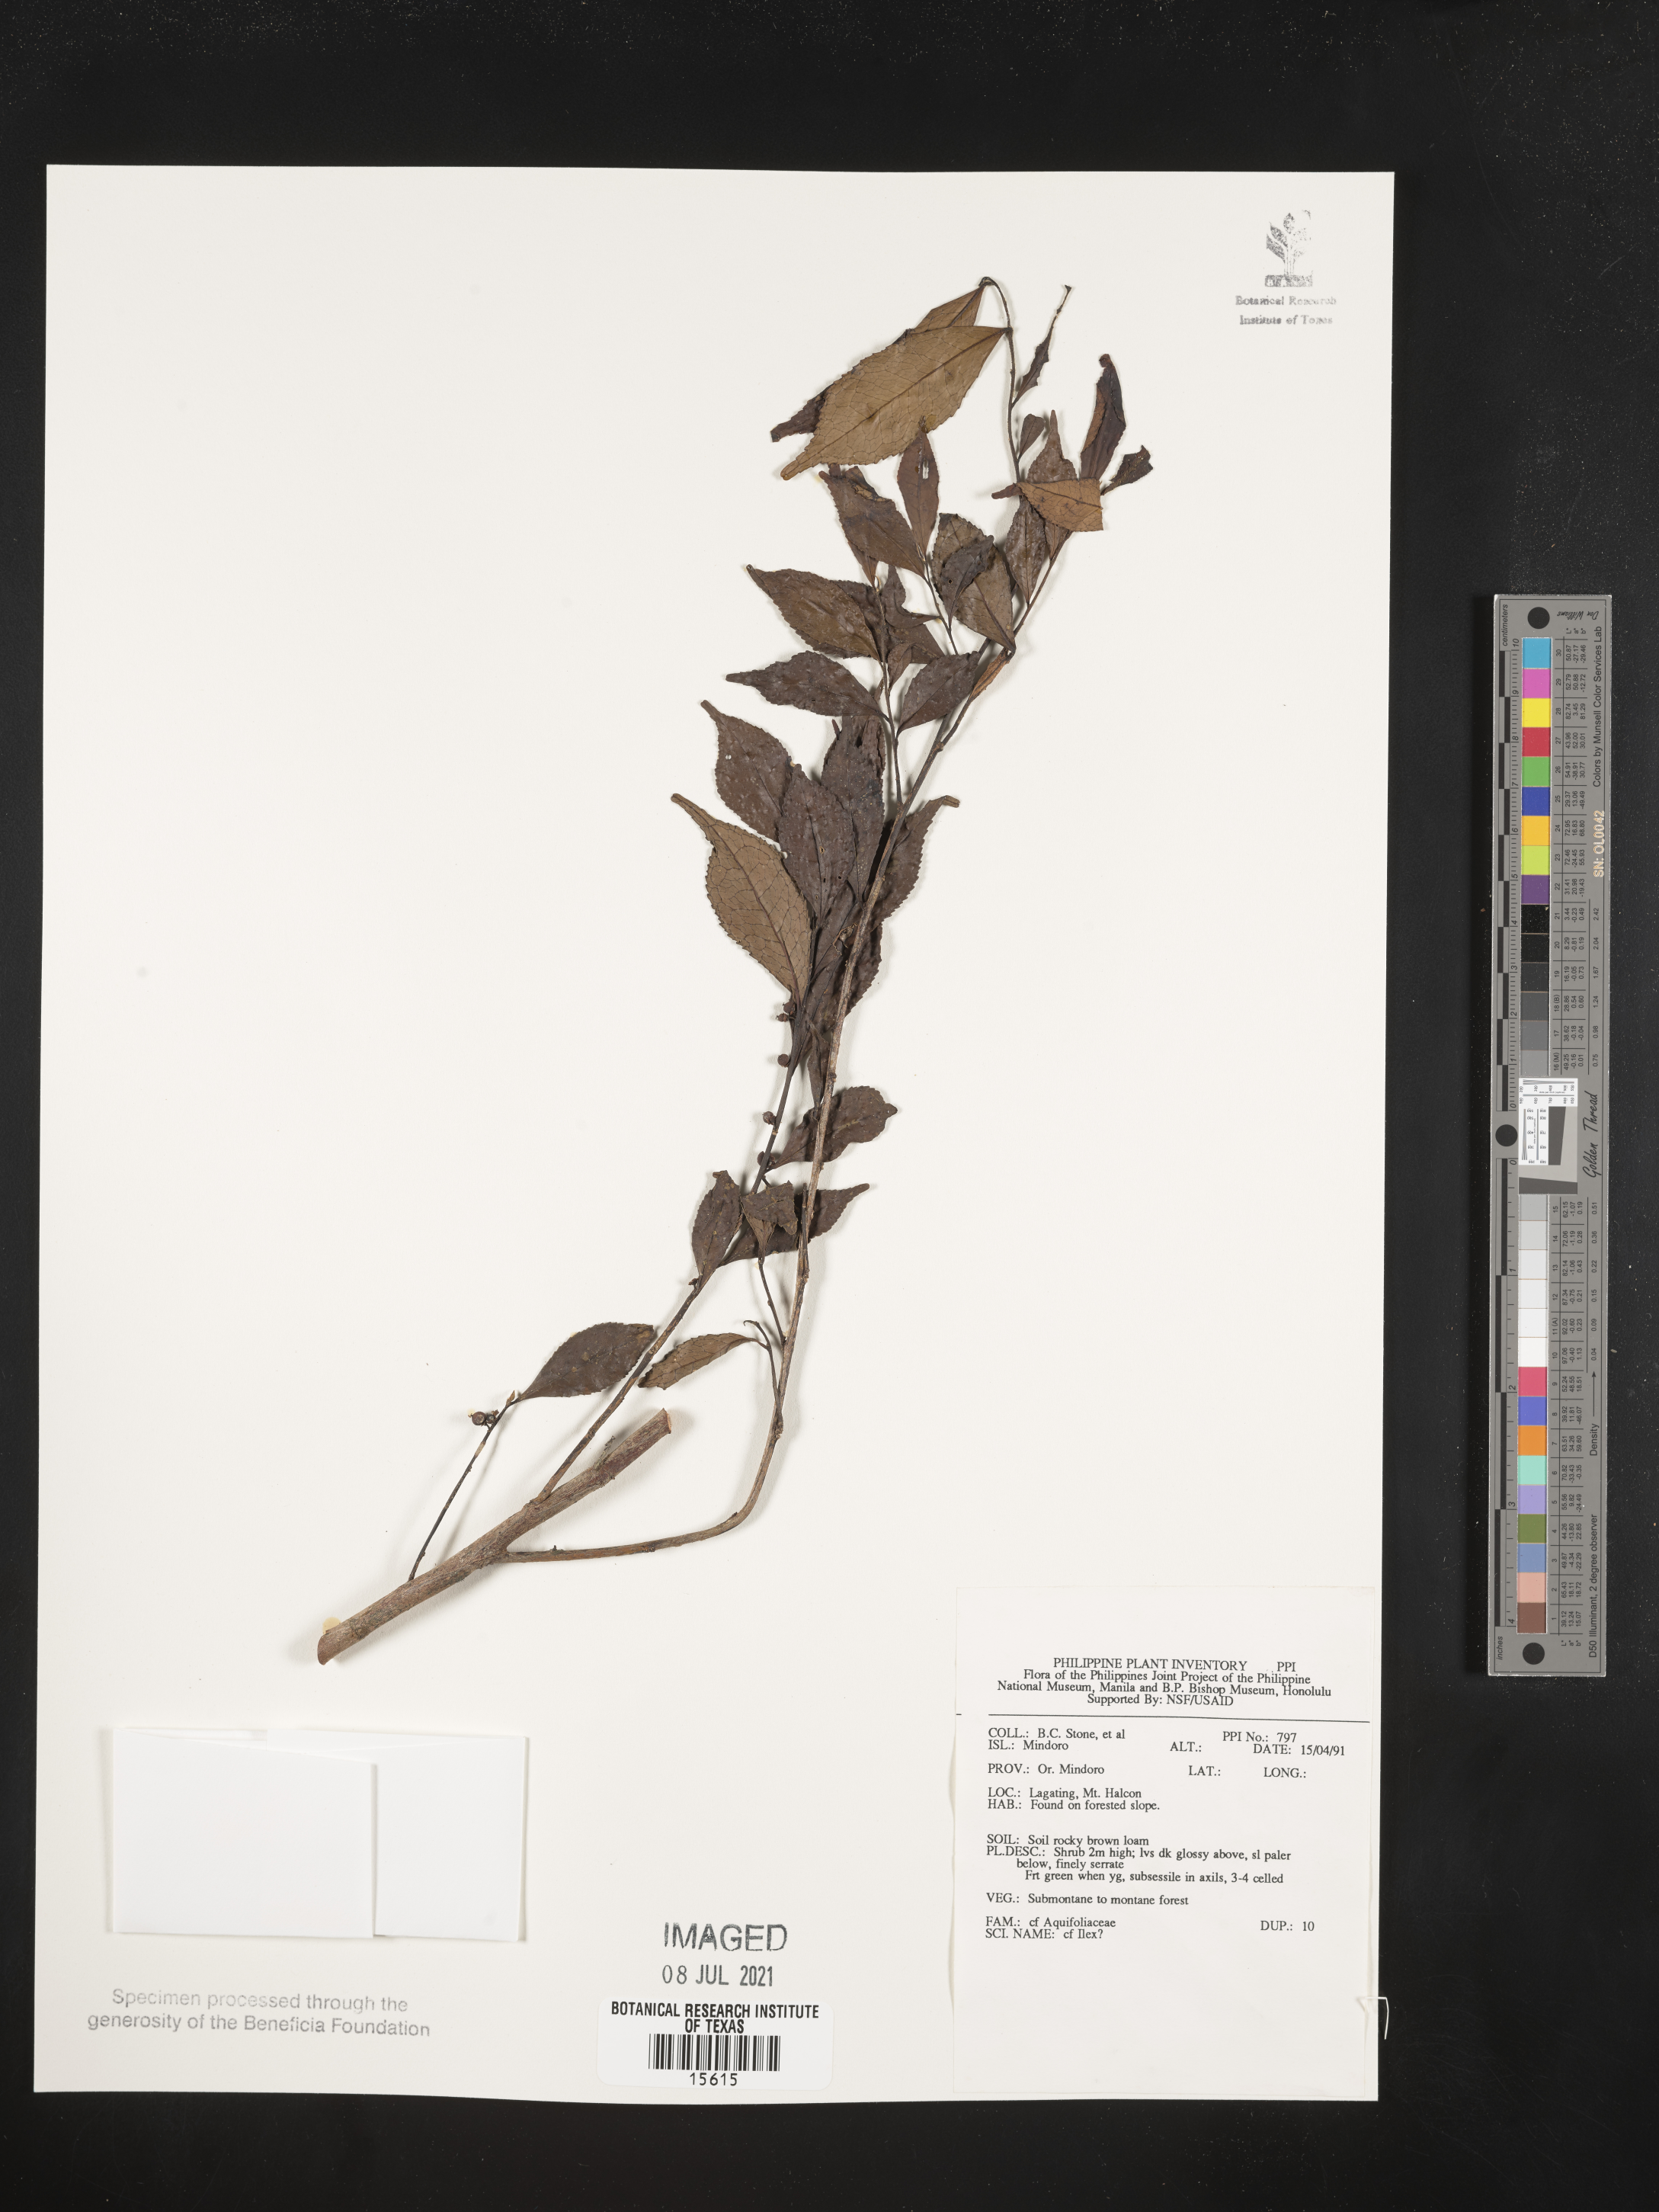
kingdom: Plantae
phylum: Tracheophyta
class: Magnoliopsida
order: Aquifoliales
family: Aquifoliaceae
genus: Ilex
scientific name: Ilex
